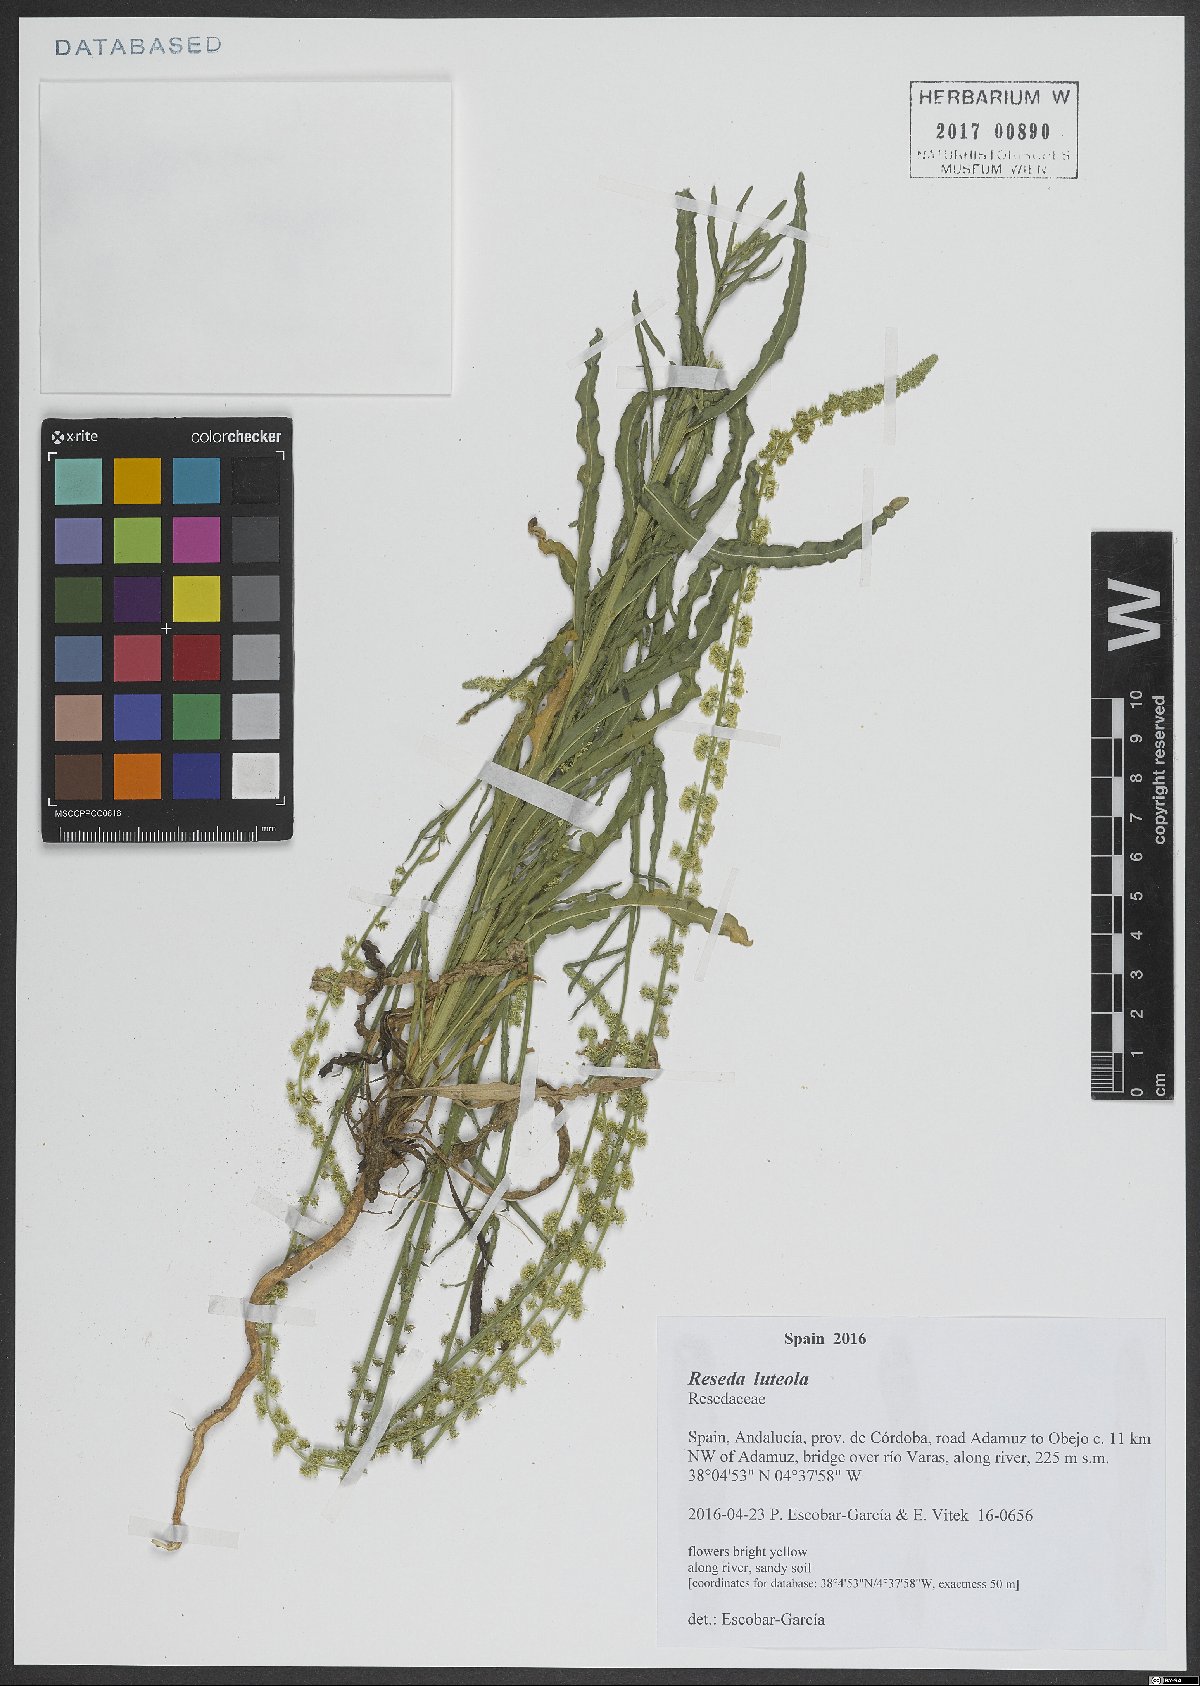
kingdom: Plantae
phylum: Tracheophyta
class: Magnoliopsida
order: Brassicales
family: Resedaceae
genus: Reseda
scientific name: Reseda luteola
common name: Weld
